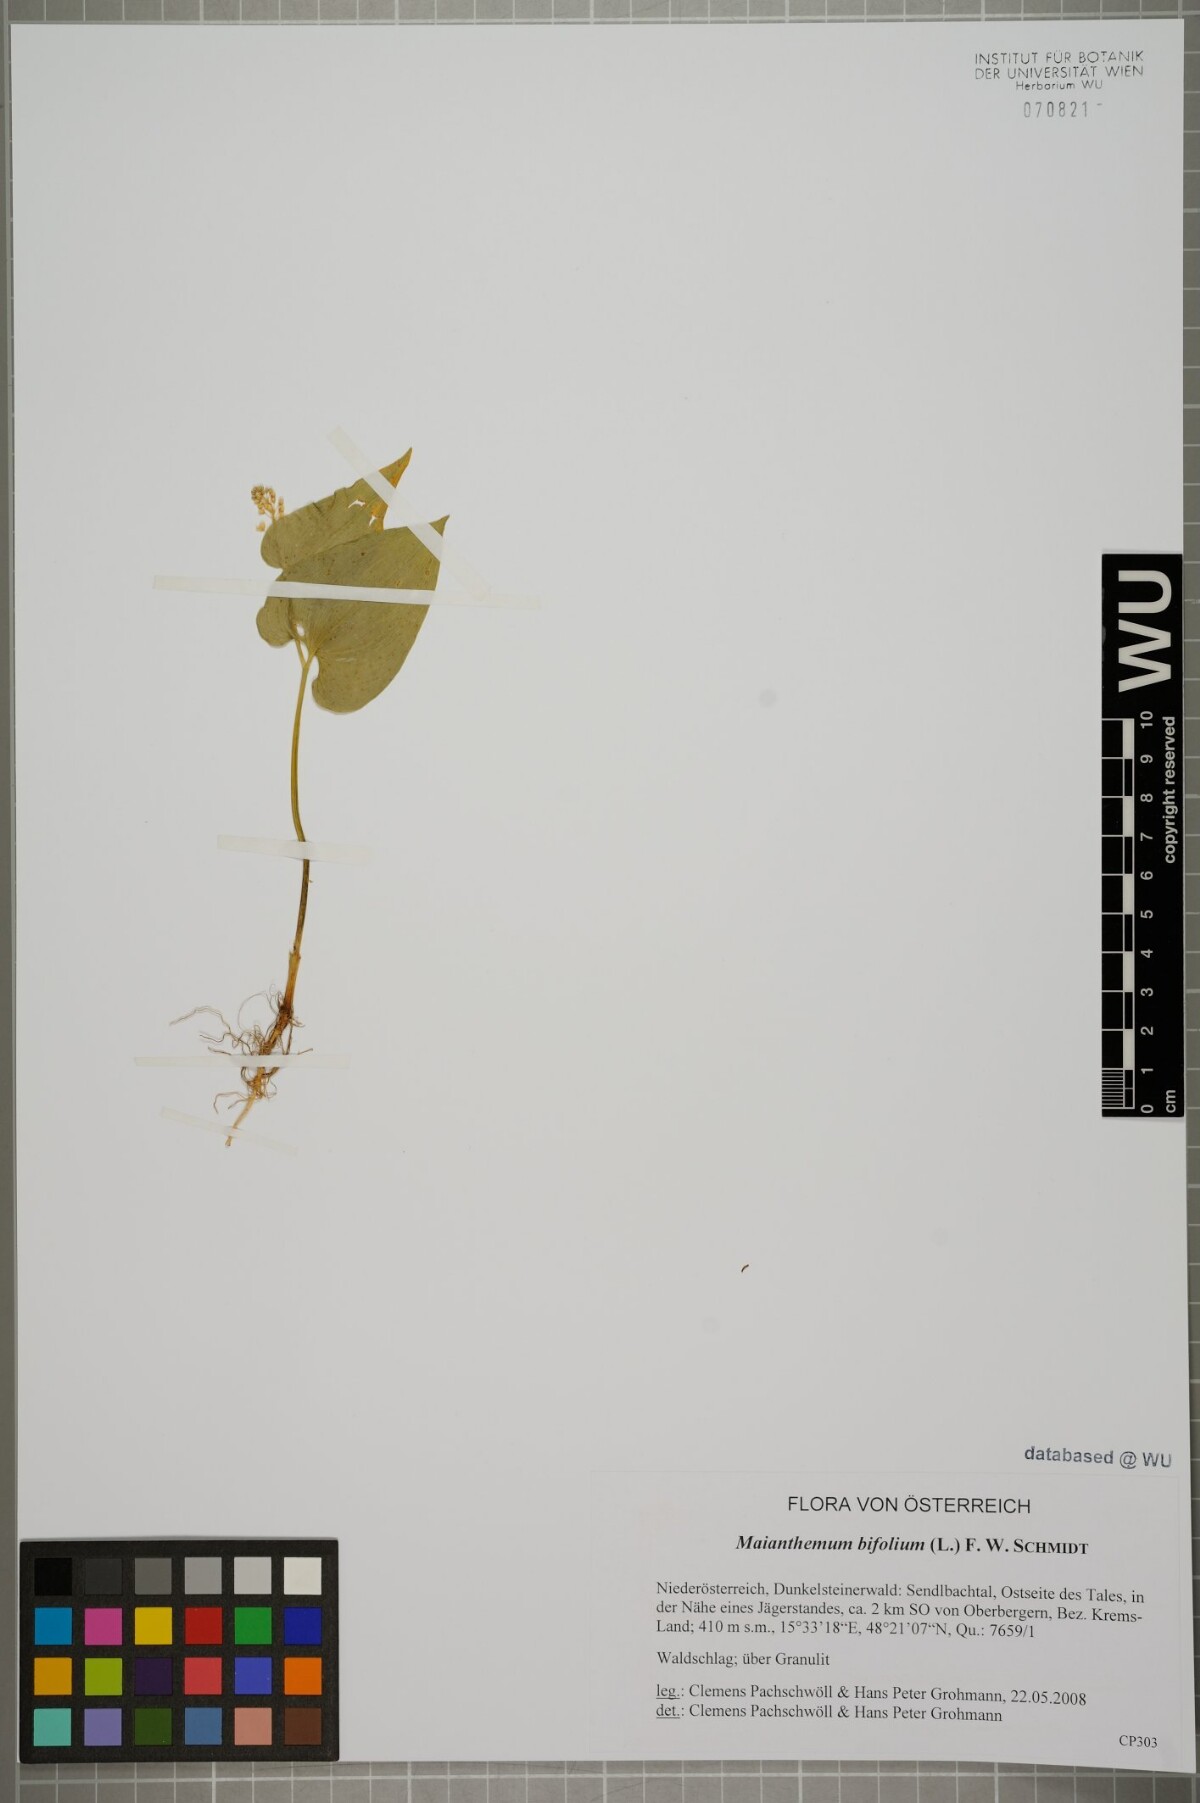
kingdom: Plantae
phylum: Tracheophyta
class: Liliopsida
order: Asparagales
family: Asparagaceae
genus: Maianthemum
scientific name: Maianthemum bifolium
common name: May lily
